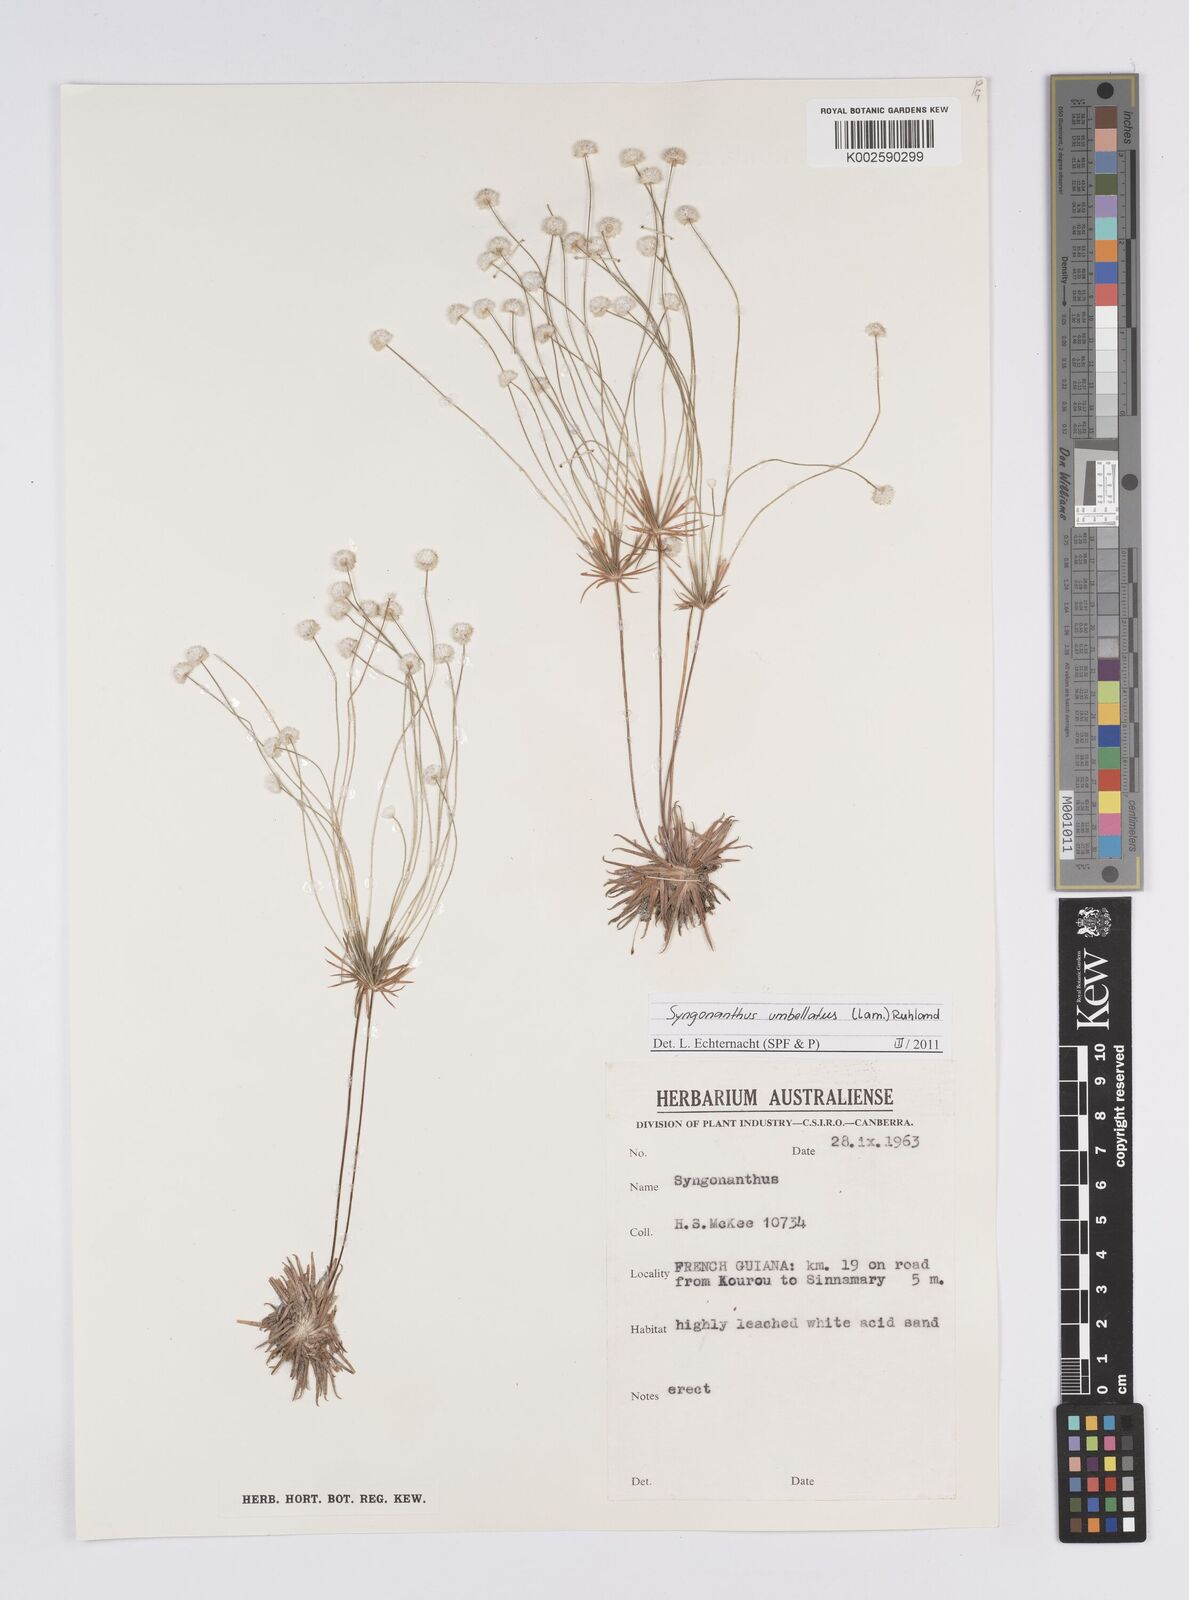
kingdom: Plantae
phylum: Tracheophyta
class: Liliopsida
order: Poales
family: Eriocaulaceae
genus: Syngonanthus
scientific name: Syngonanthus umbellatus
